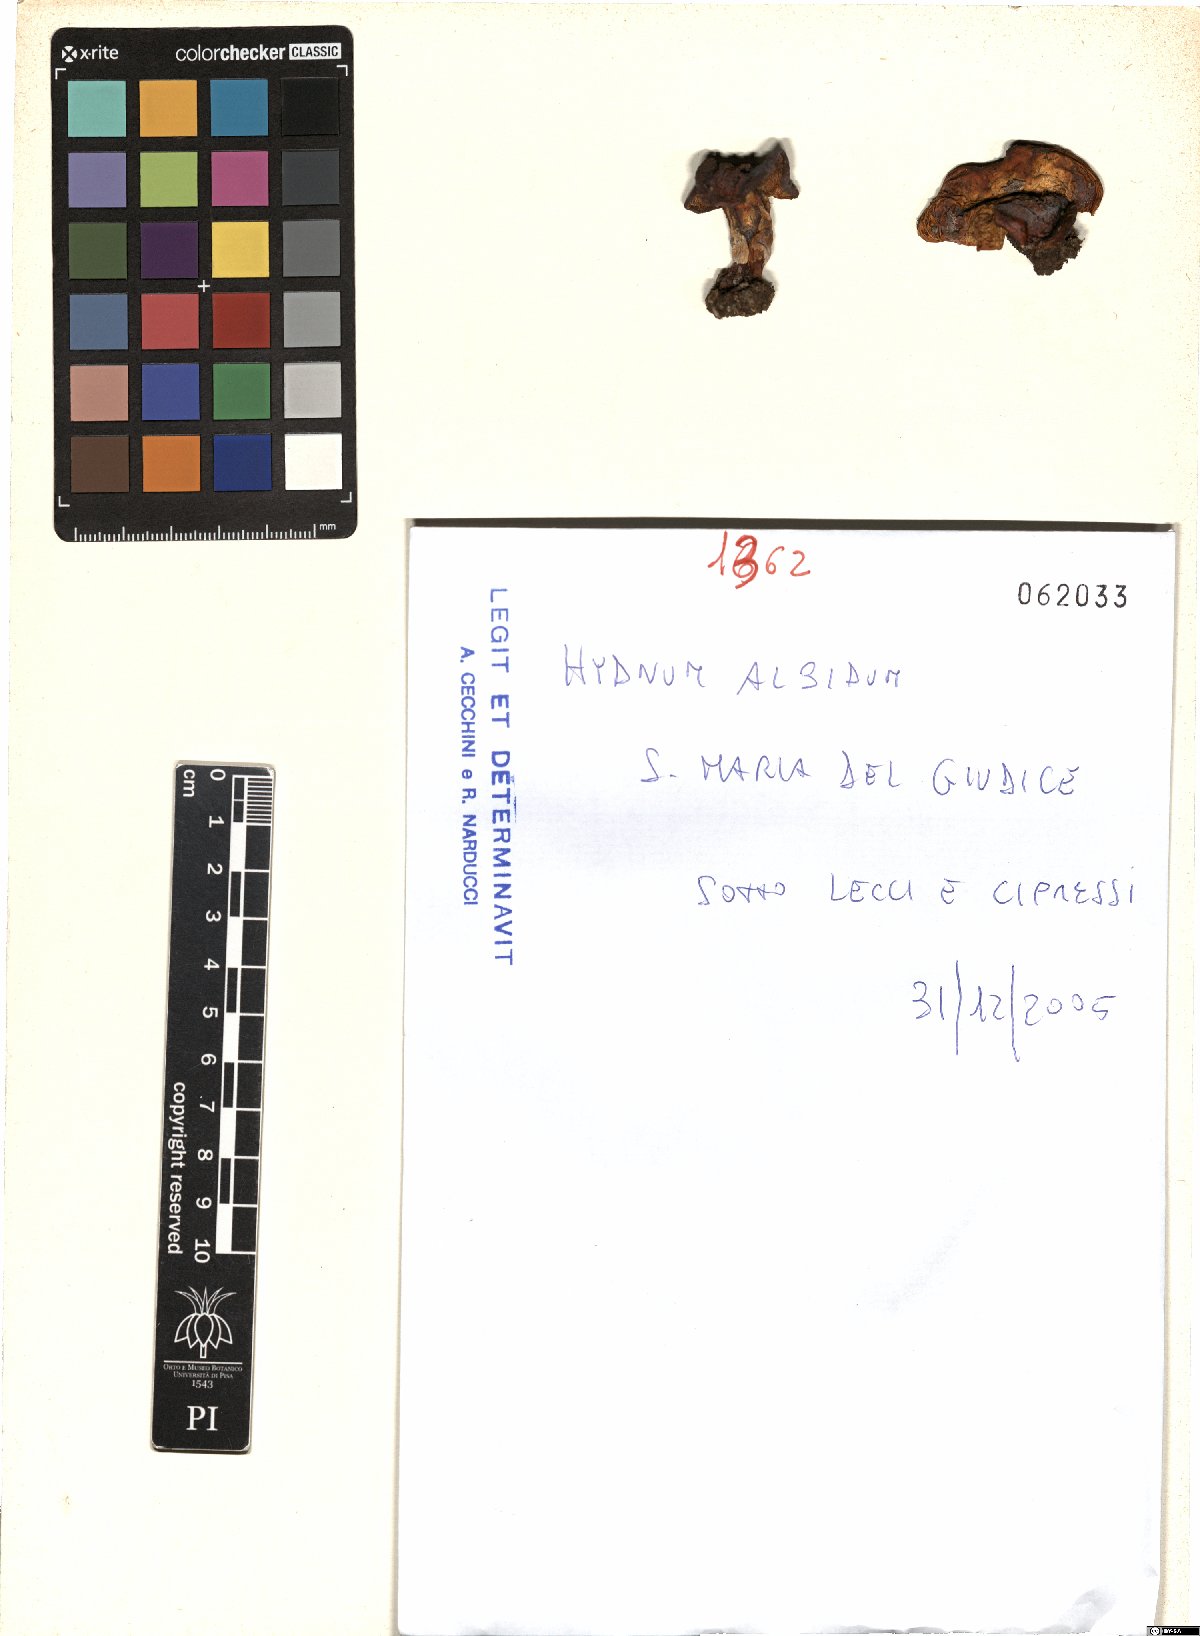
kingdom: Fungi
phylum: Basidiomycota
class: Agaricomycetes
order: Cantharellales
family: Hydnaceae
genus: Hydnum
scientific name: Hydnum albidum
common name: White hedgehog
